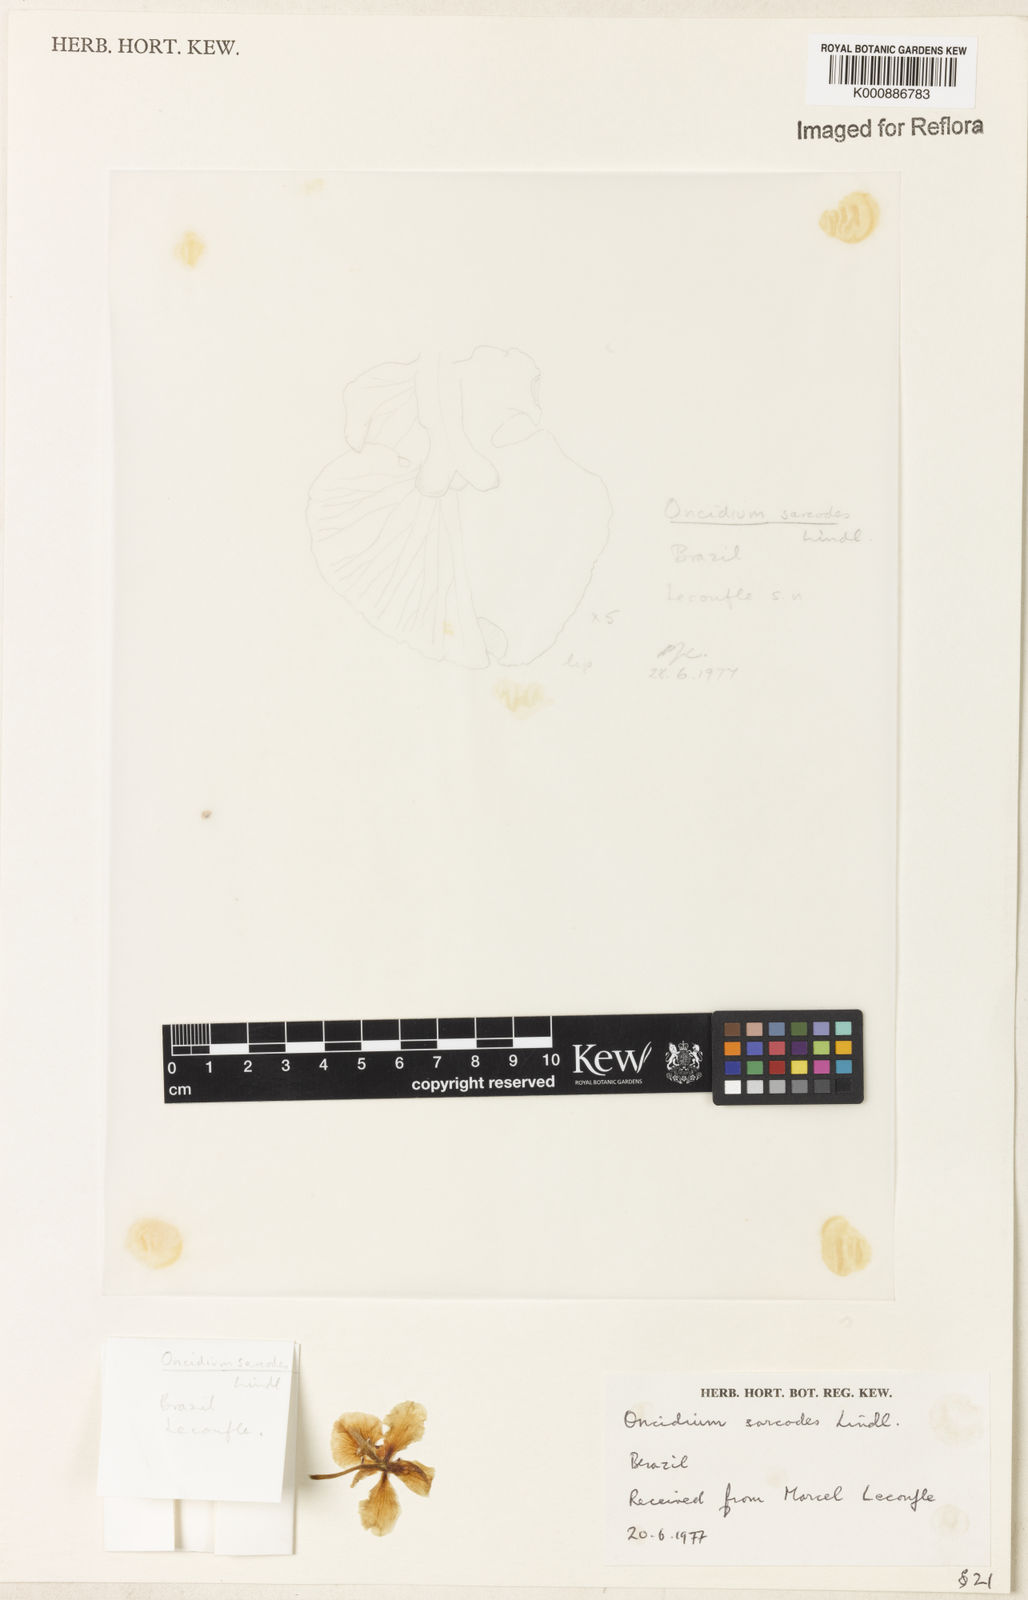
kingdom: Plantae
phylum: Tracheophyta
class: Liliopsida
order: Asparagales
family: Orchidaceae
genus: Gomesa
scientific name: Gomesa sarcodes
